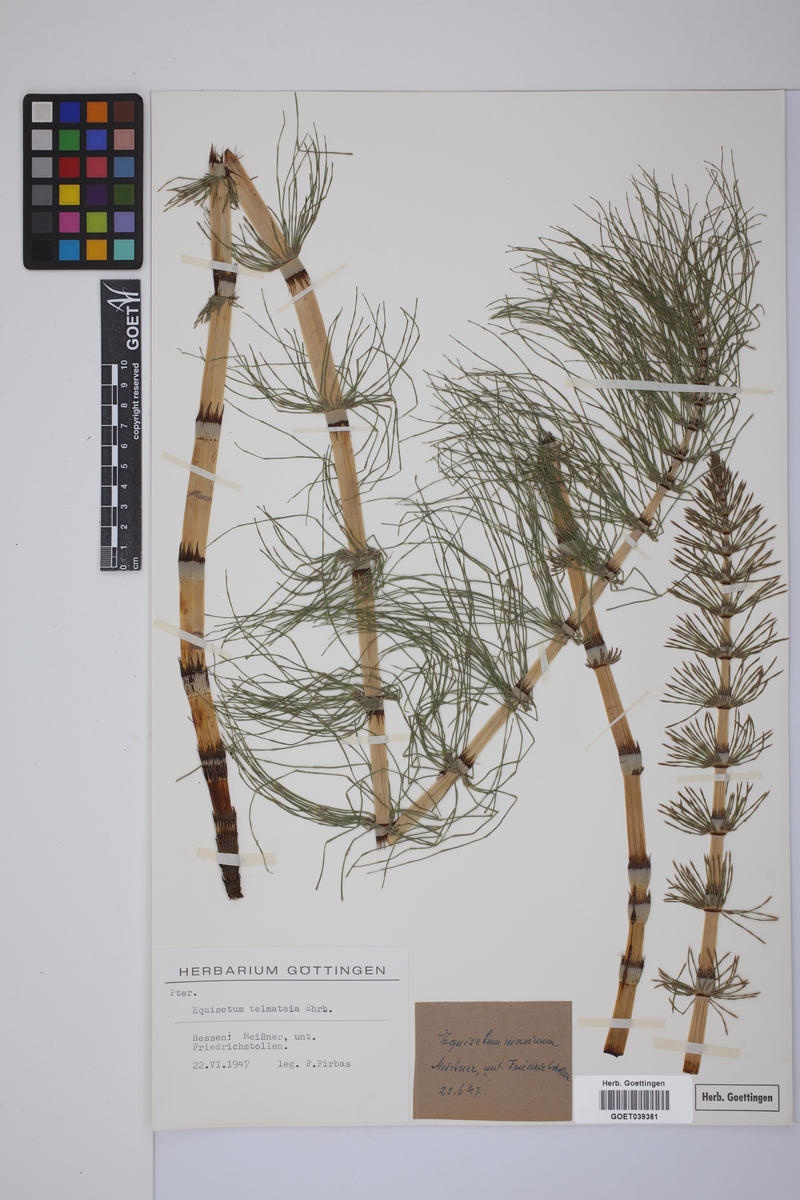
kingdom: Plantae
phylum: Tracheophyta
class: Polypodiopsida
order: Equisetales
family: Equisetaceae
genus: Equisetum
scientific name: Equisetum telmateia
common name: Great horsetail
